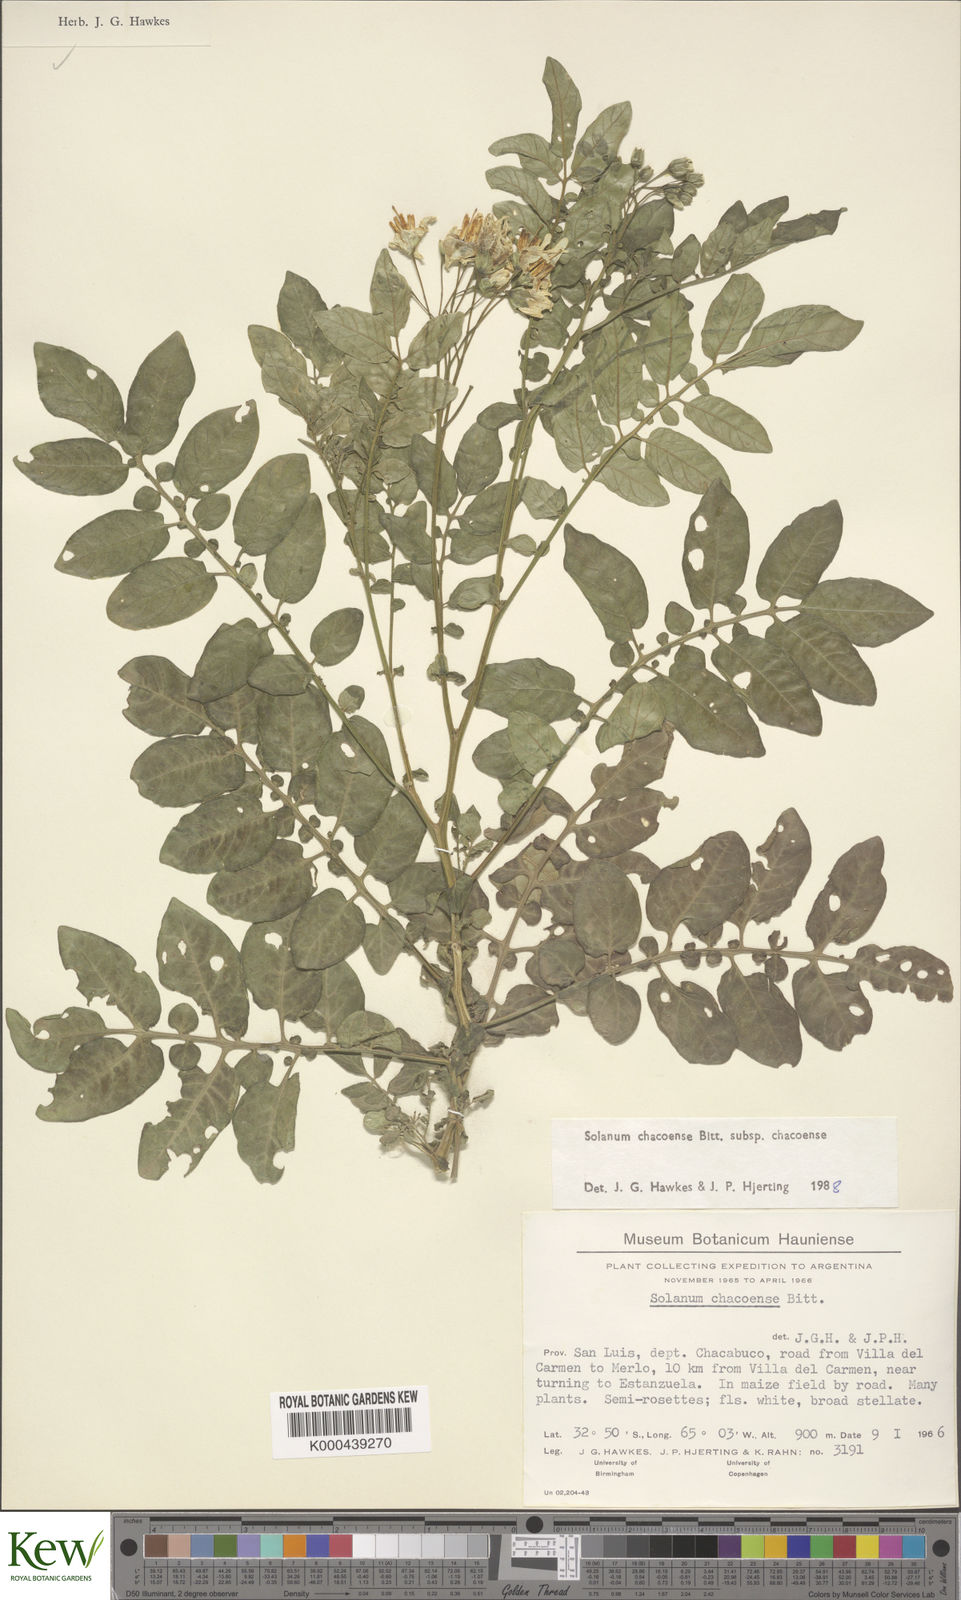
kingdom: Plantae
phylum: Tracheophyta
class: Magnoliopsida
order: Solanales
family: Solanaceae
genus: Solanum
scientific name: Solanum chacoense
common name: Chaco potato
